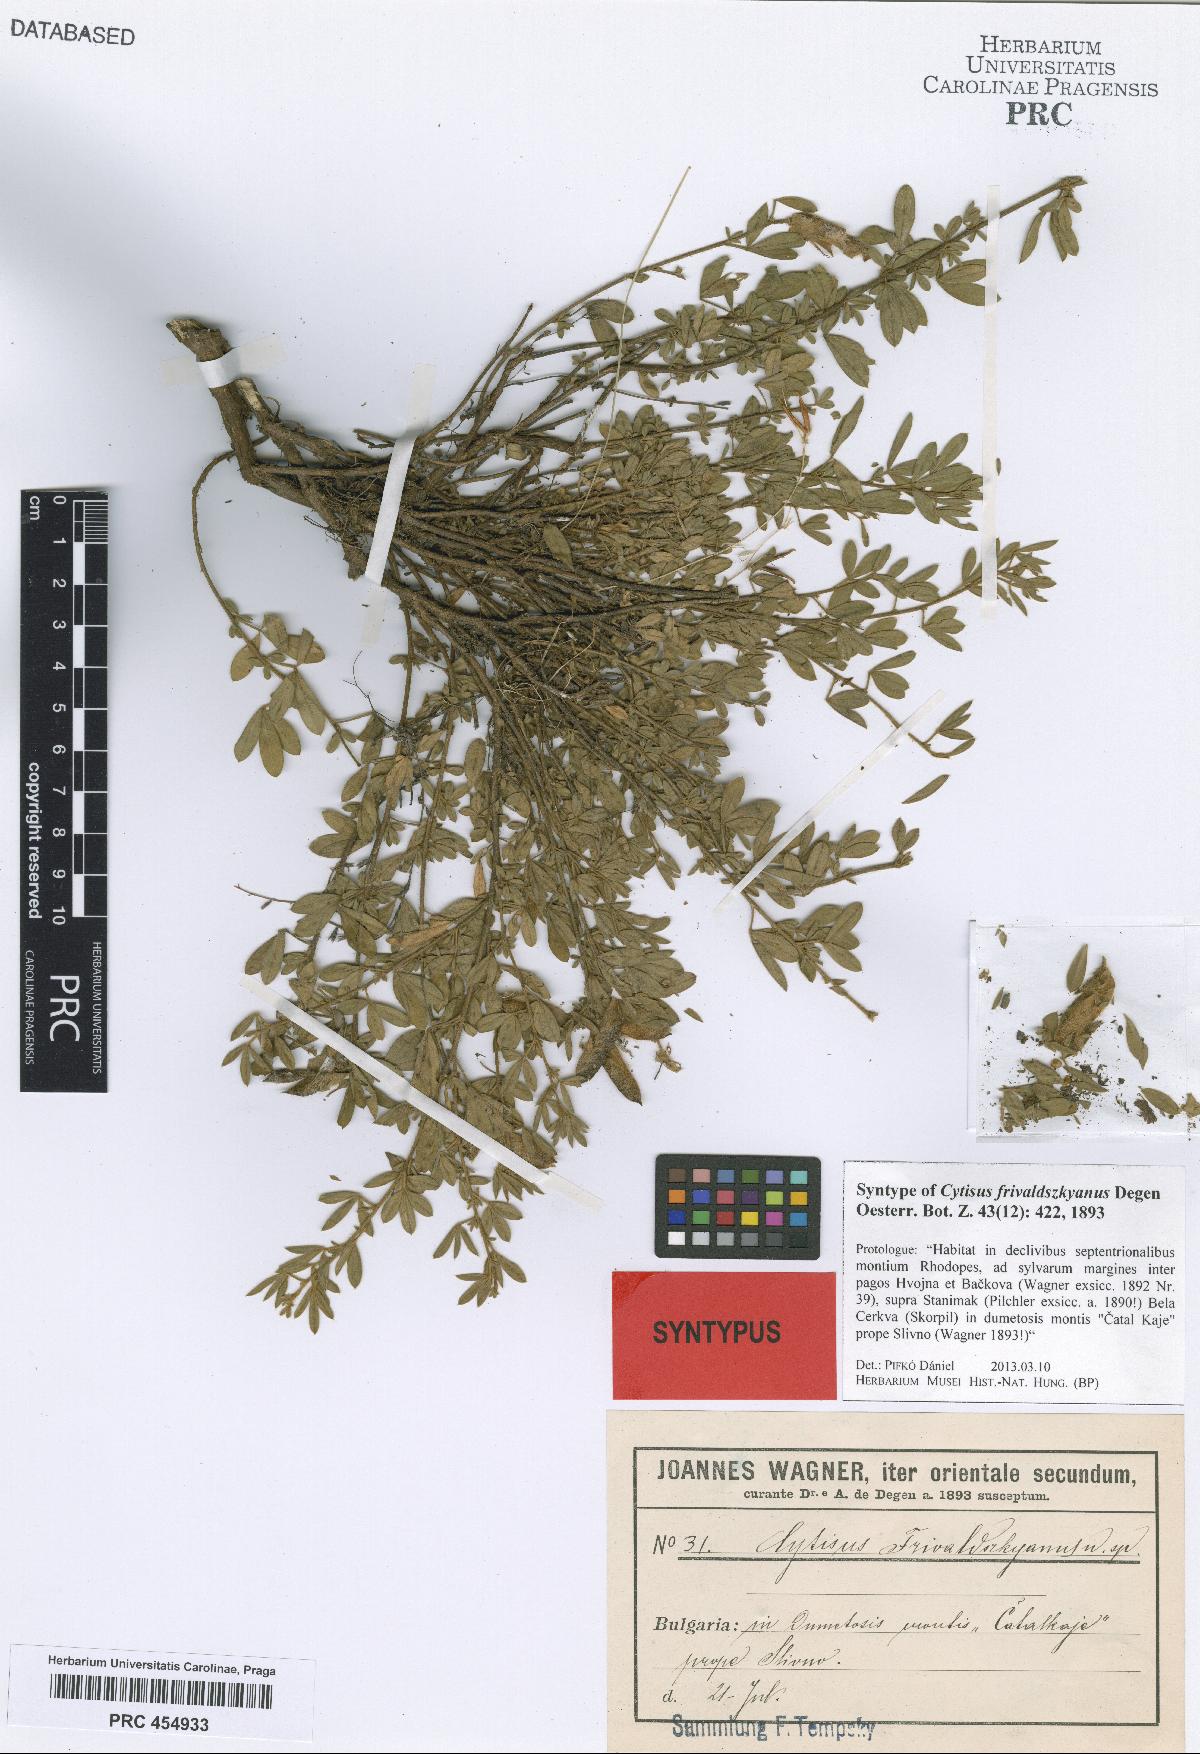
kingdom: Plantae
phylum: Tracheophyta
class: Magnoliopsida
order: Fabales
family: Fabaceae
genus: Chamaecytisus
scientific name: Chamaecytisus frivaldszkyanus
